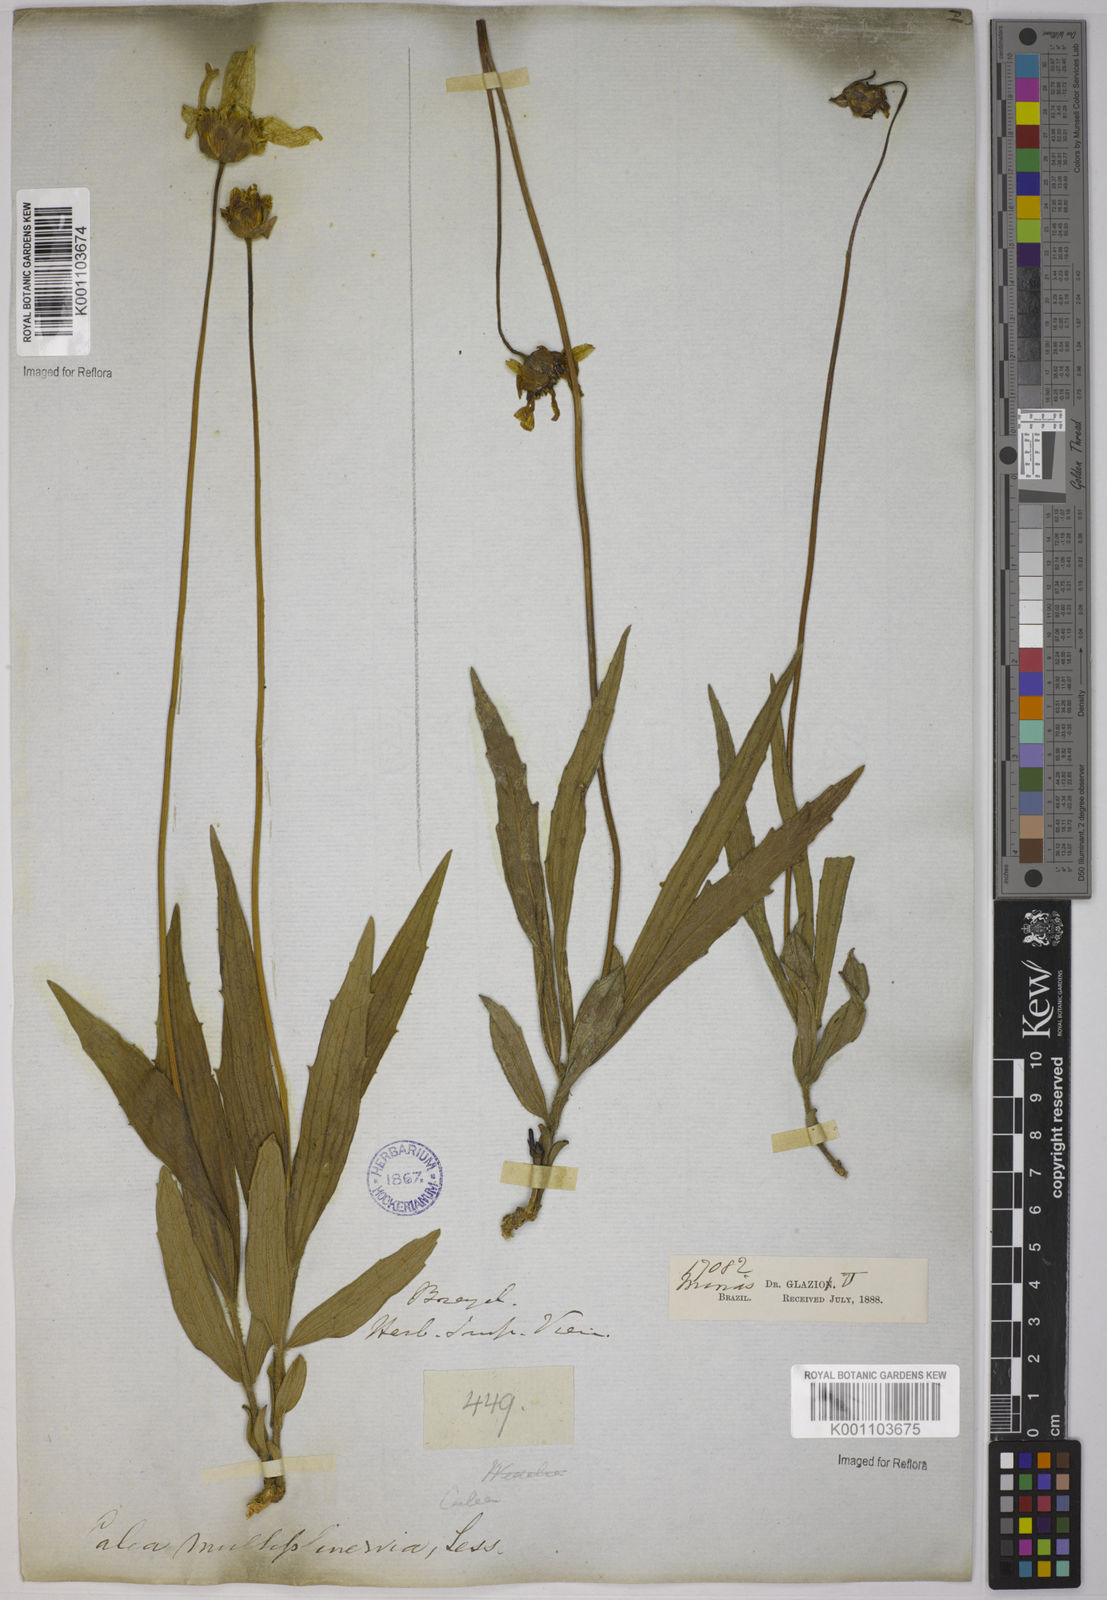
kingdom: Plantae
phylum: Tracheophyta
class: Magnoliopsida
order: Asterales
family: Asteraceae
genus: Calea
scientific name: Calea multiplinervia
